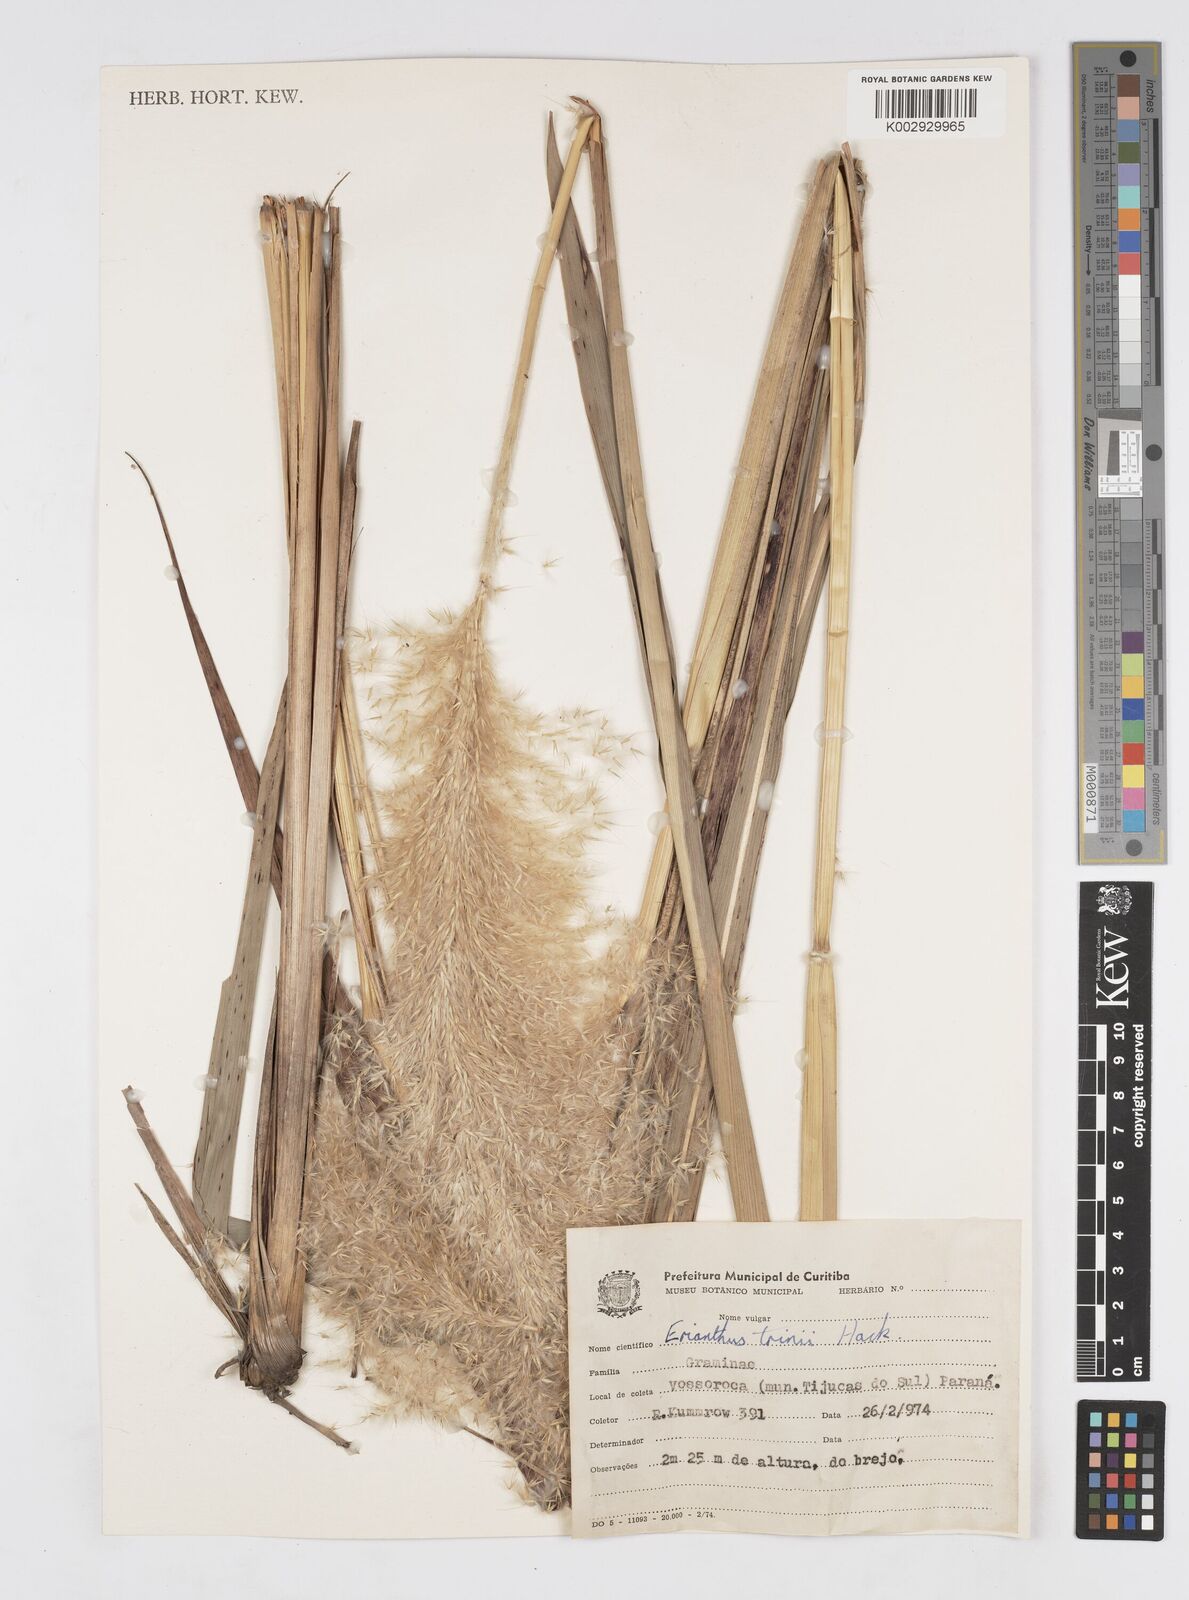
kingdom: Plantae
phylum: Tracheophyta
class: Liliopsida
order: Poales
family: Poaceae
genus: Erianthus
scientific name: Erianthus asper
